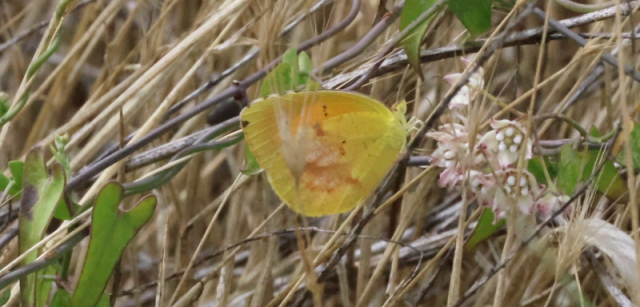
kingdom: Animalia
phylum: Arthropoda
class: Insecta
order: Lepidoptera
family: Pieridae
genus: Abaeis
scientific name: Abaeis nicippe
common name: Sleepy Orange
